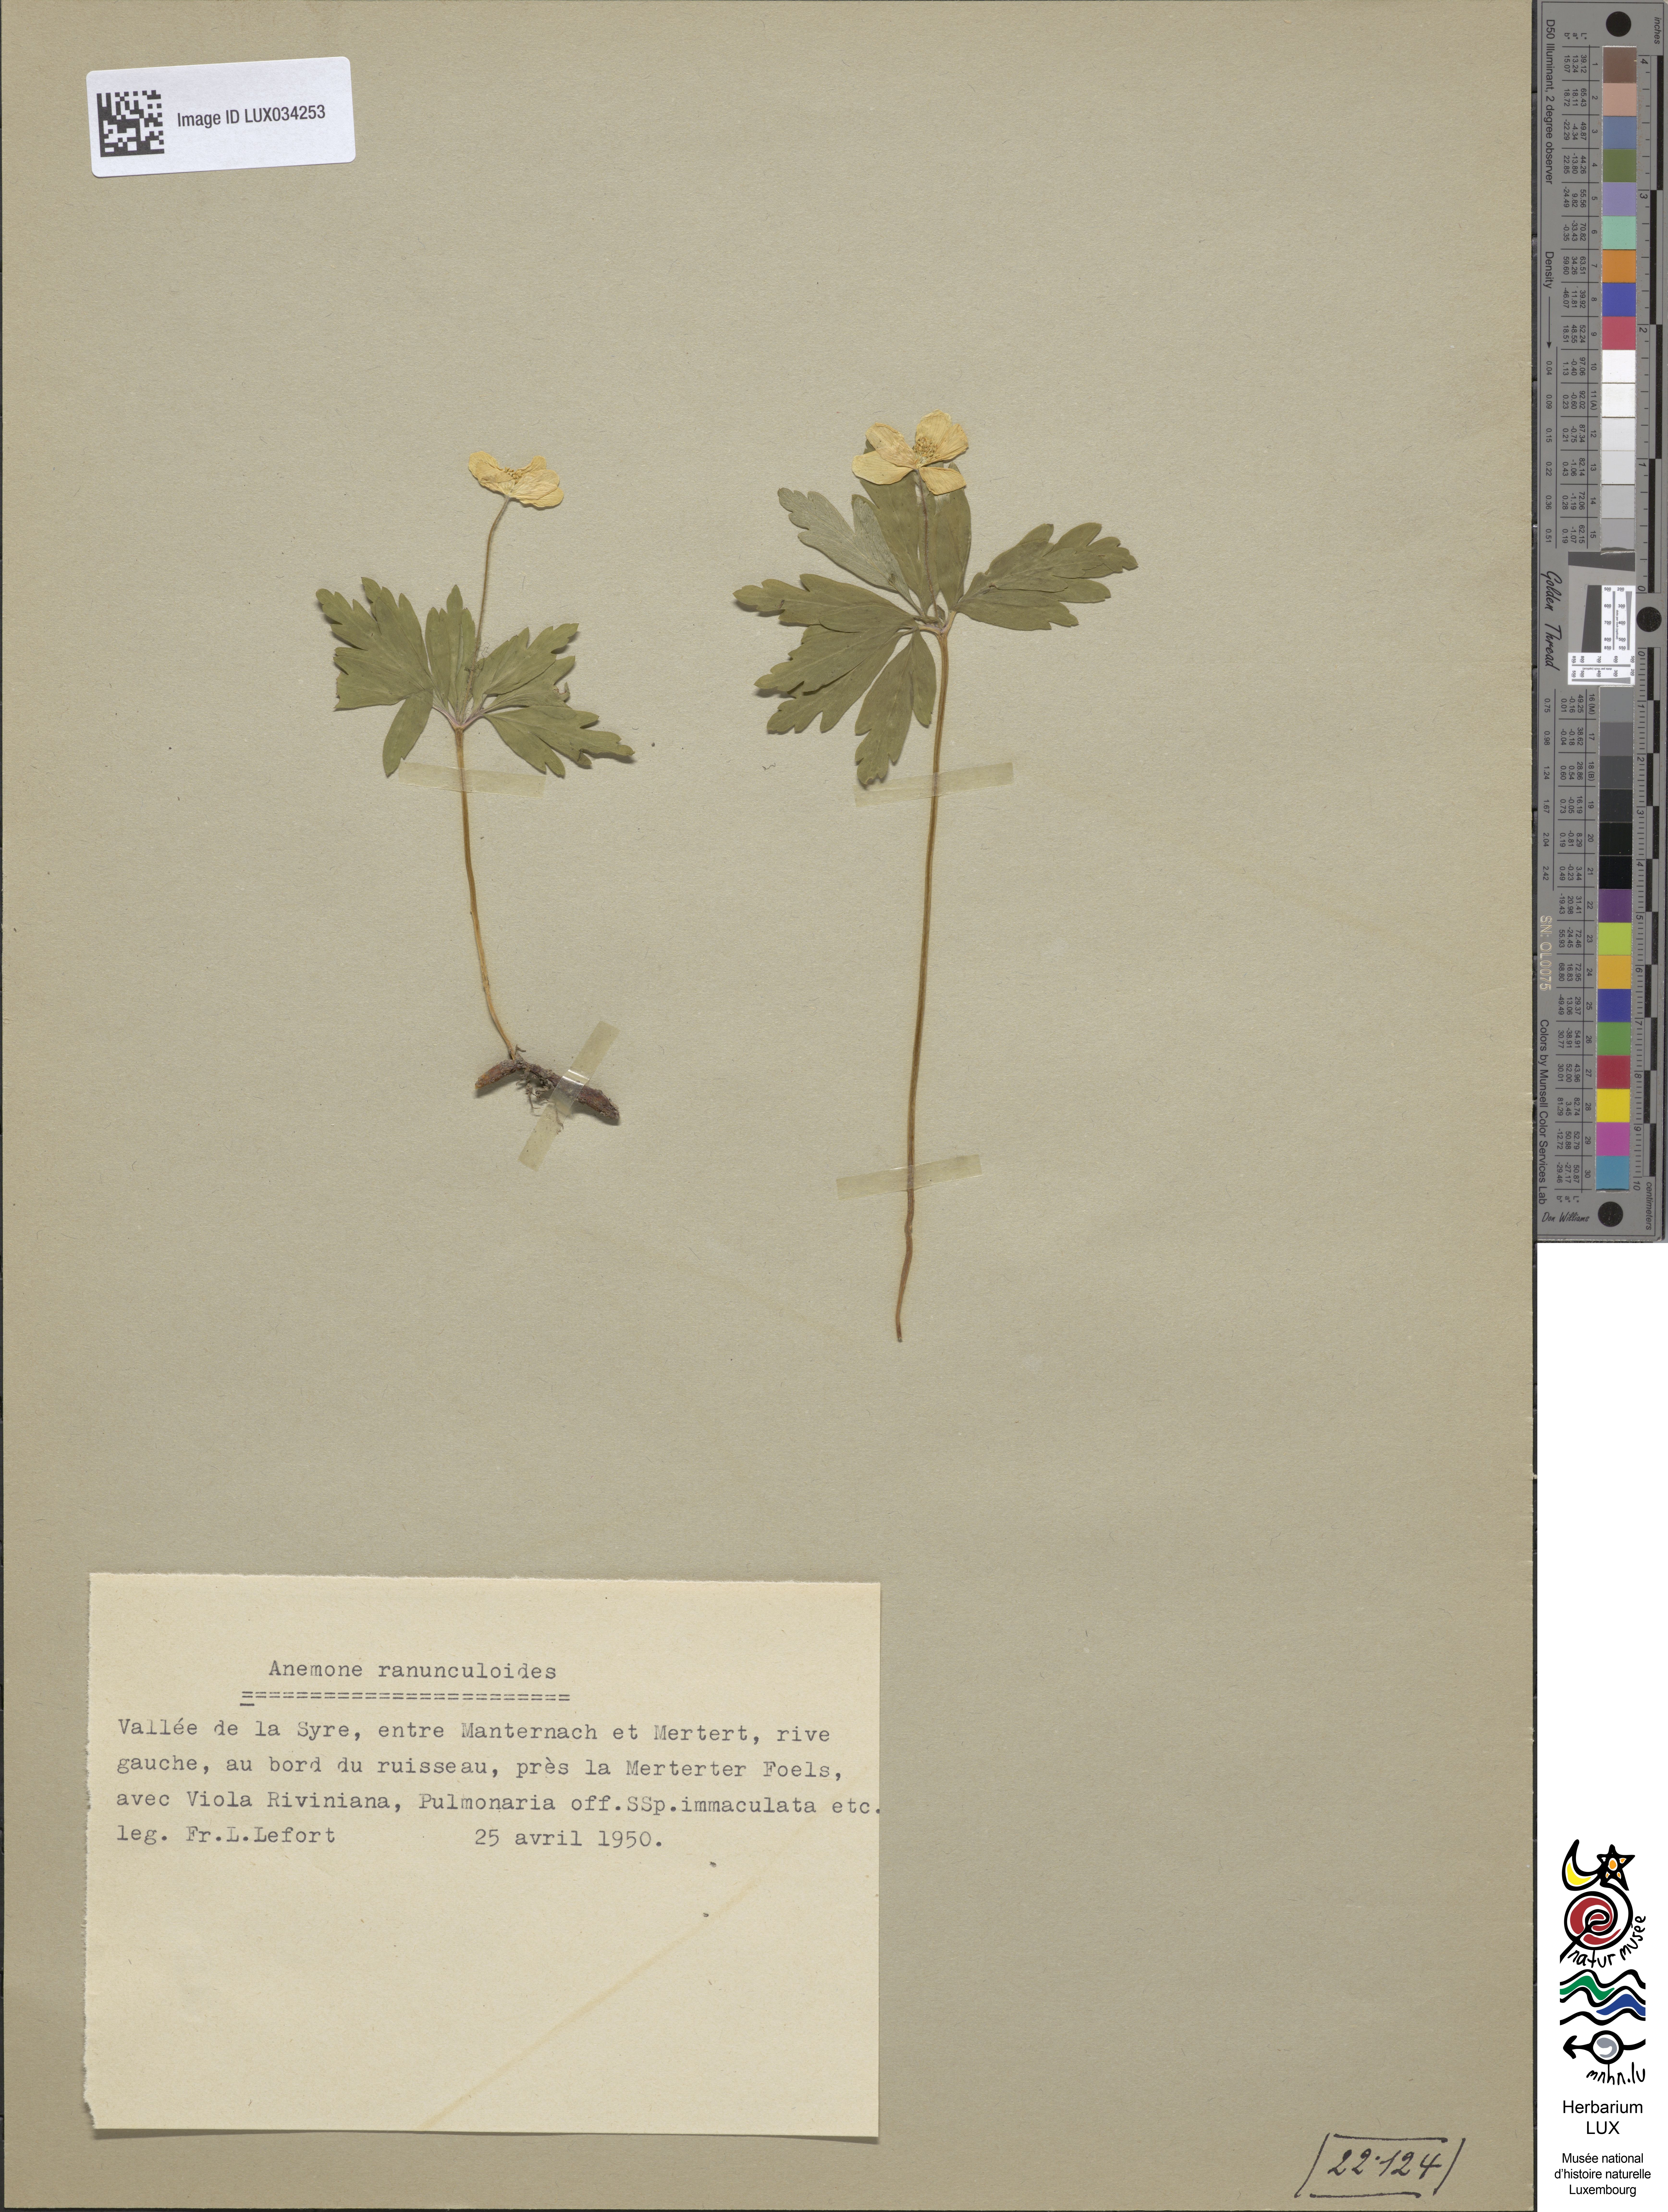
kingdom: Plantae
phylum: Tracheophyta
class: Magnoliopsida
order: Ranunculales
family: Ranunculaceae
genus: Anemone
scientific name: Anemone ranunculoides
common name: Yellow anemone
